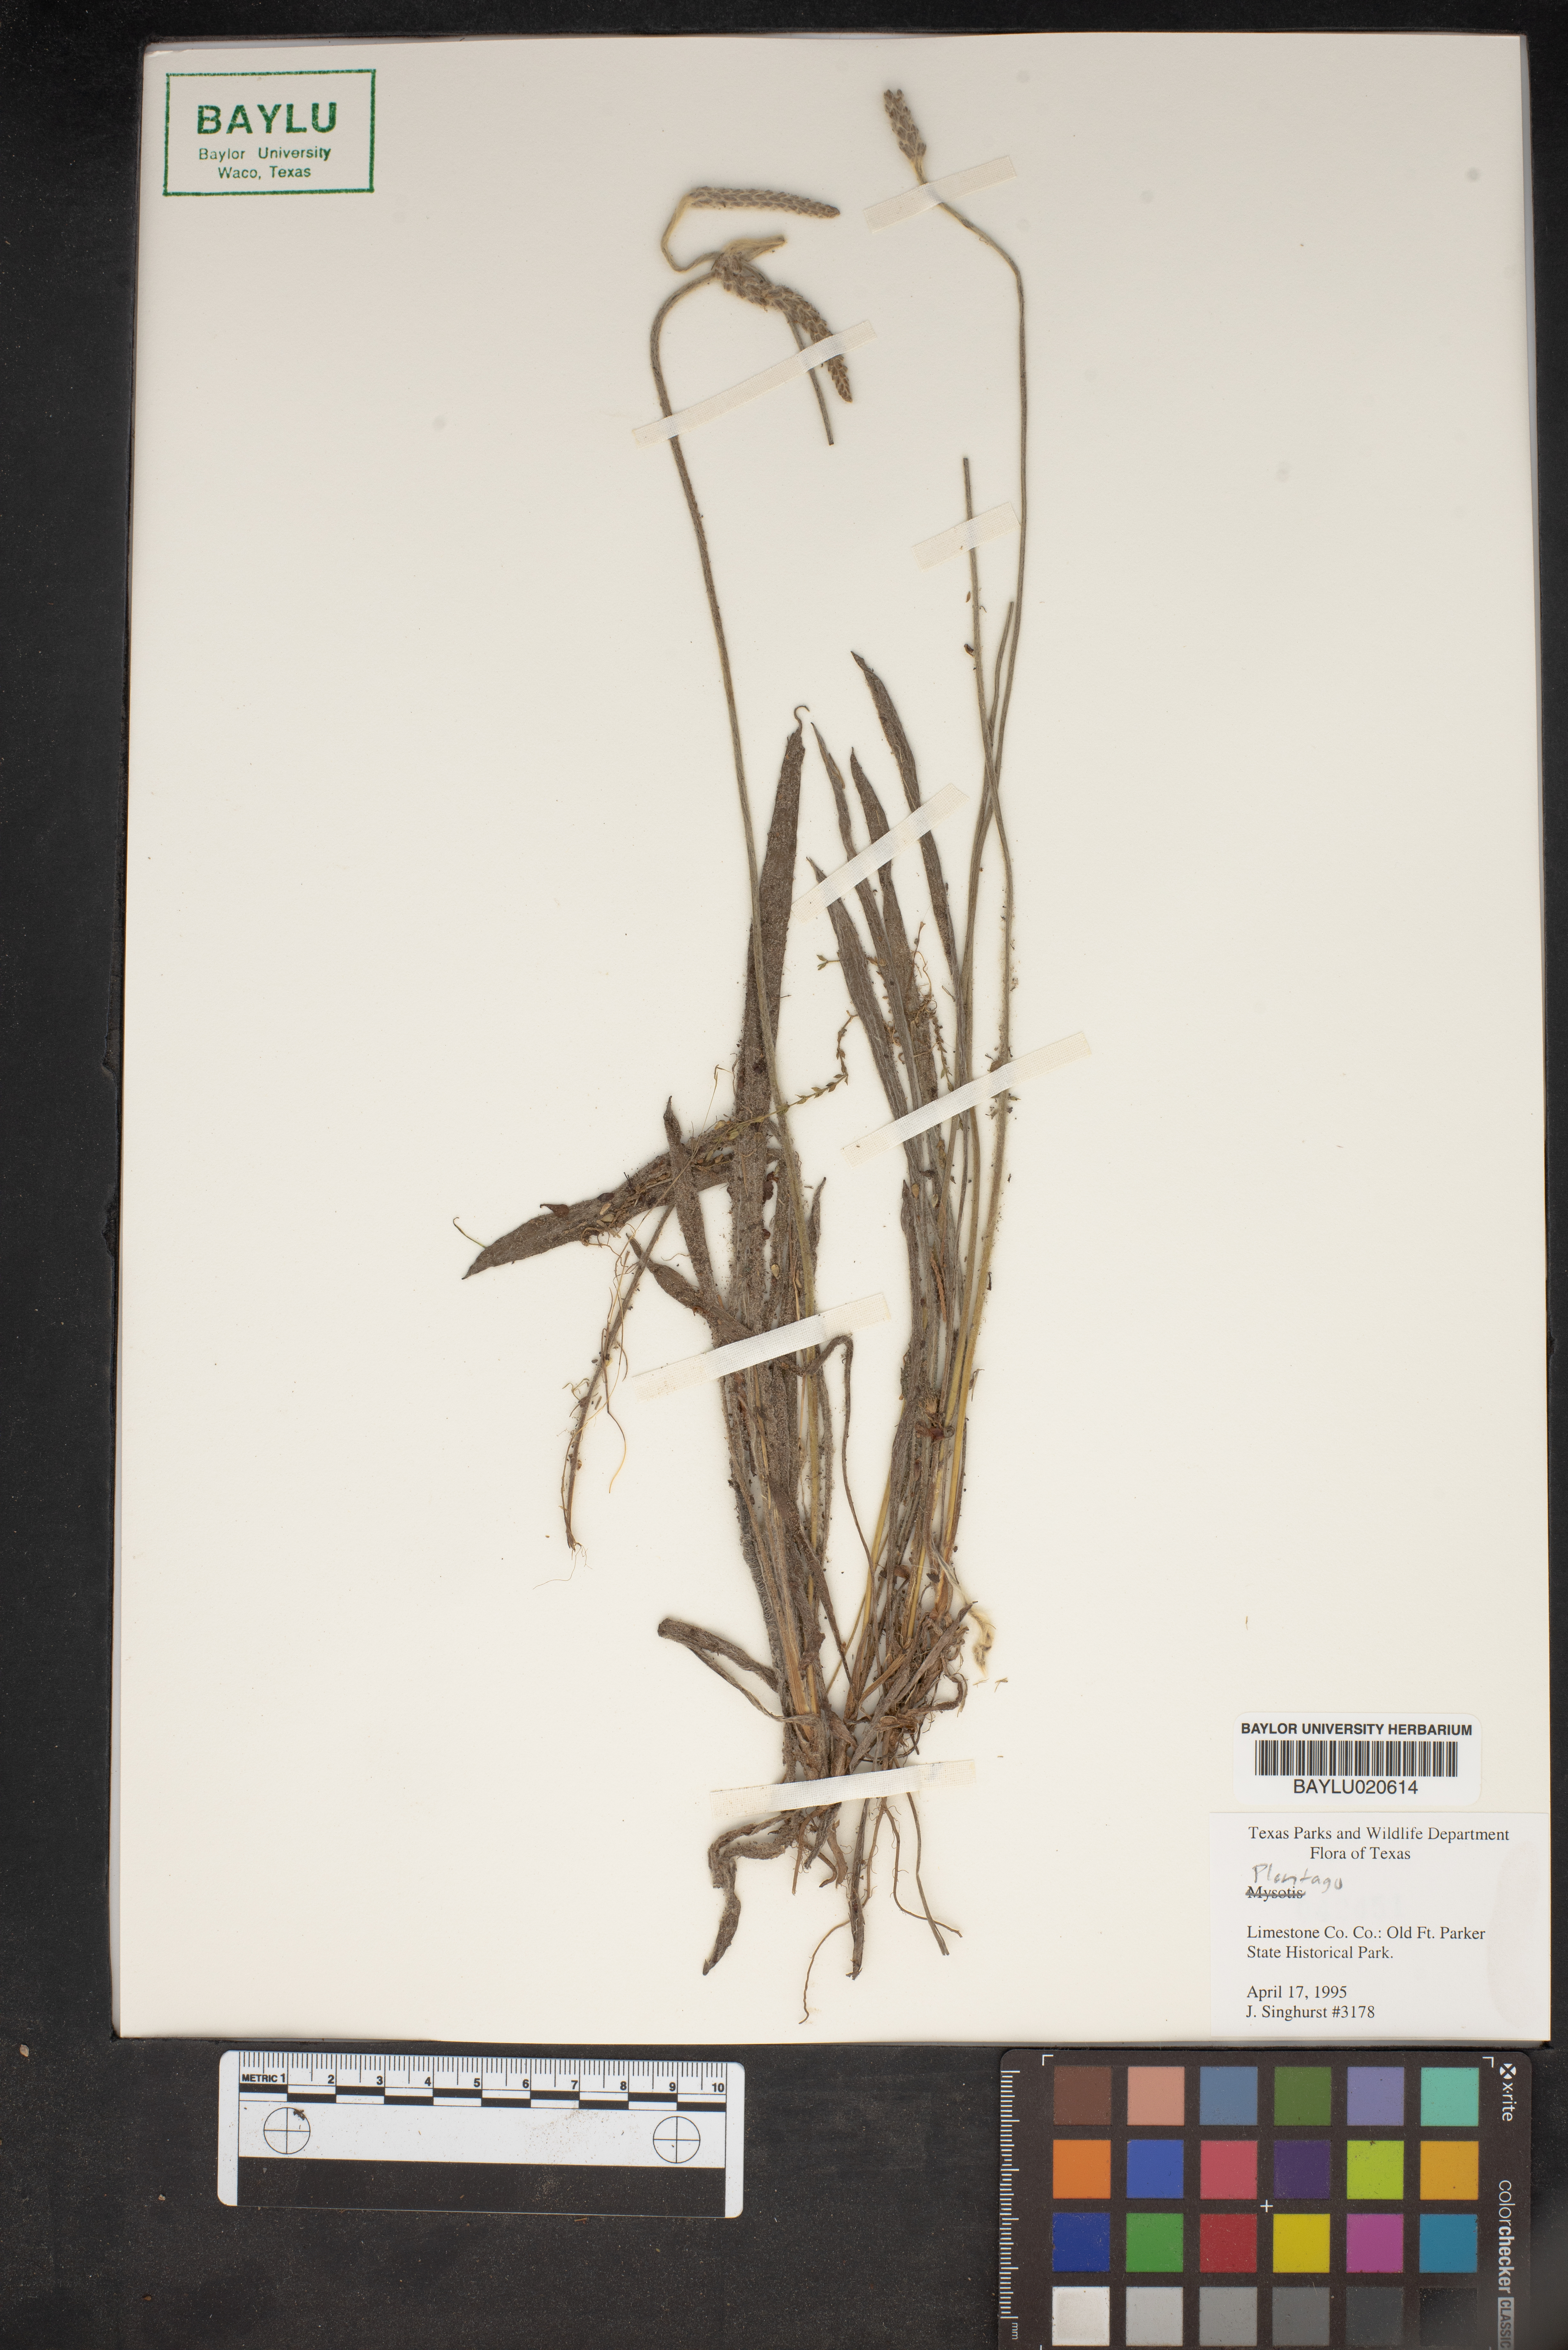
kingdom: Plantae
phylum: Tracheophyta
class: Magnoliopsida
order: Lamiales
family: Plantaginaceae
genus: Plantago
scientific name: Plantago
